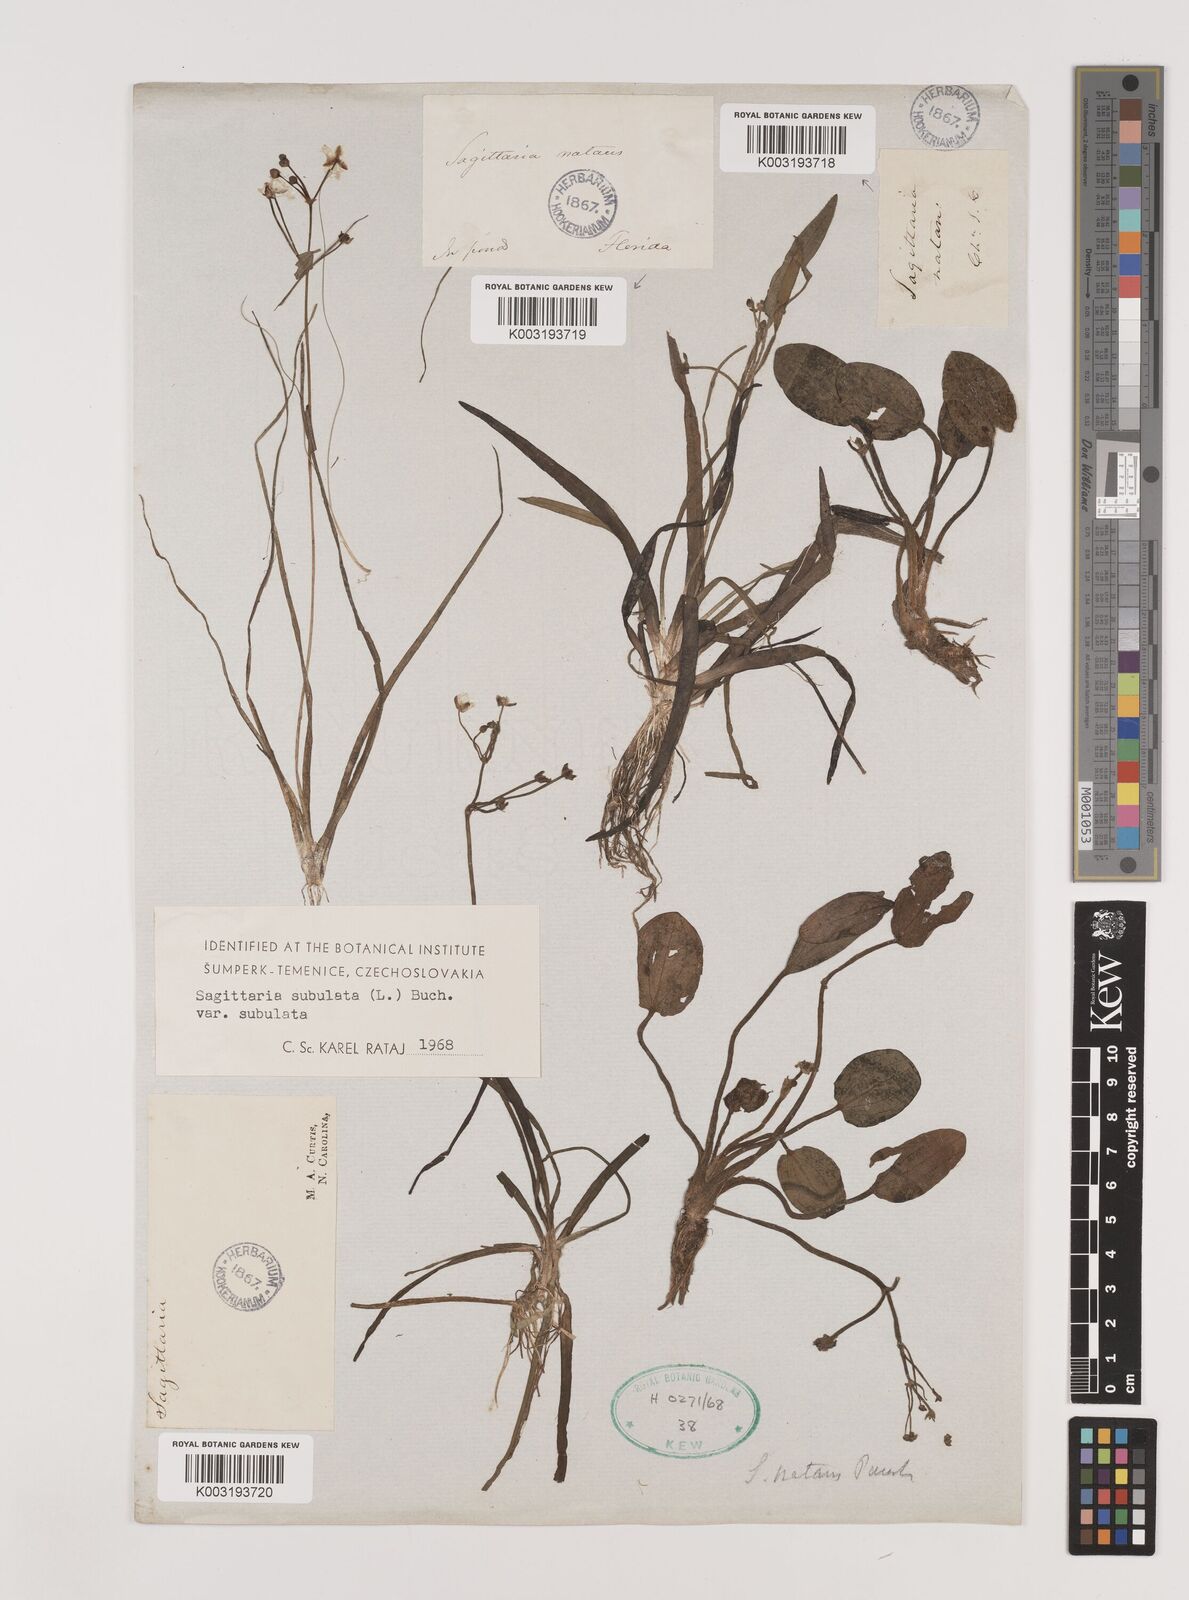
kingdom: Plantae
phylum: Tracheophyta
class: Liliopsida
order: Alismatales
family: Alismataceae
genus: Sagittaria
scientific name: Sagittaria subulata
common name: Narrow-leaved arrowhead
